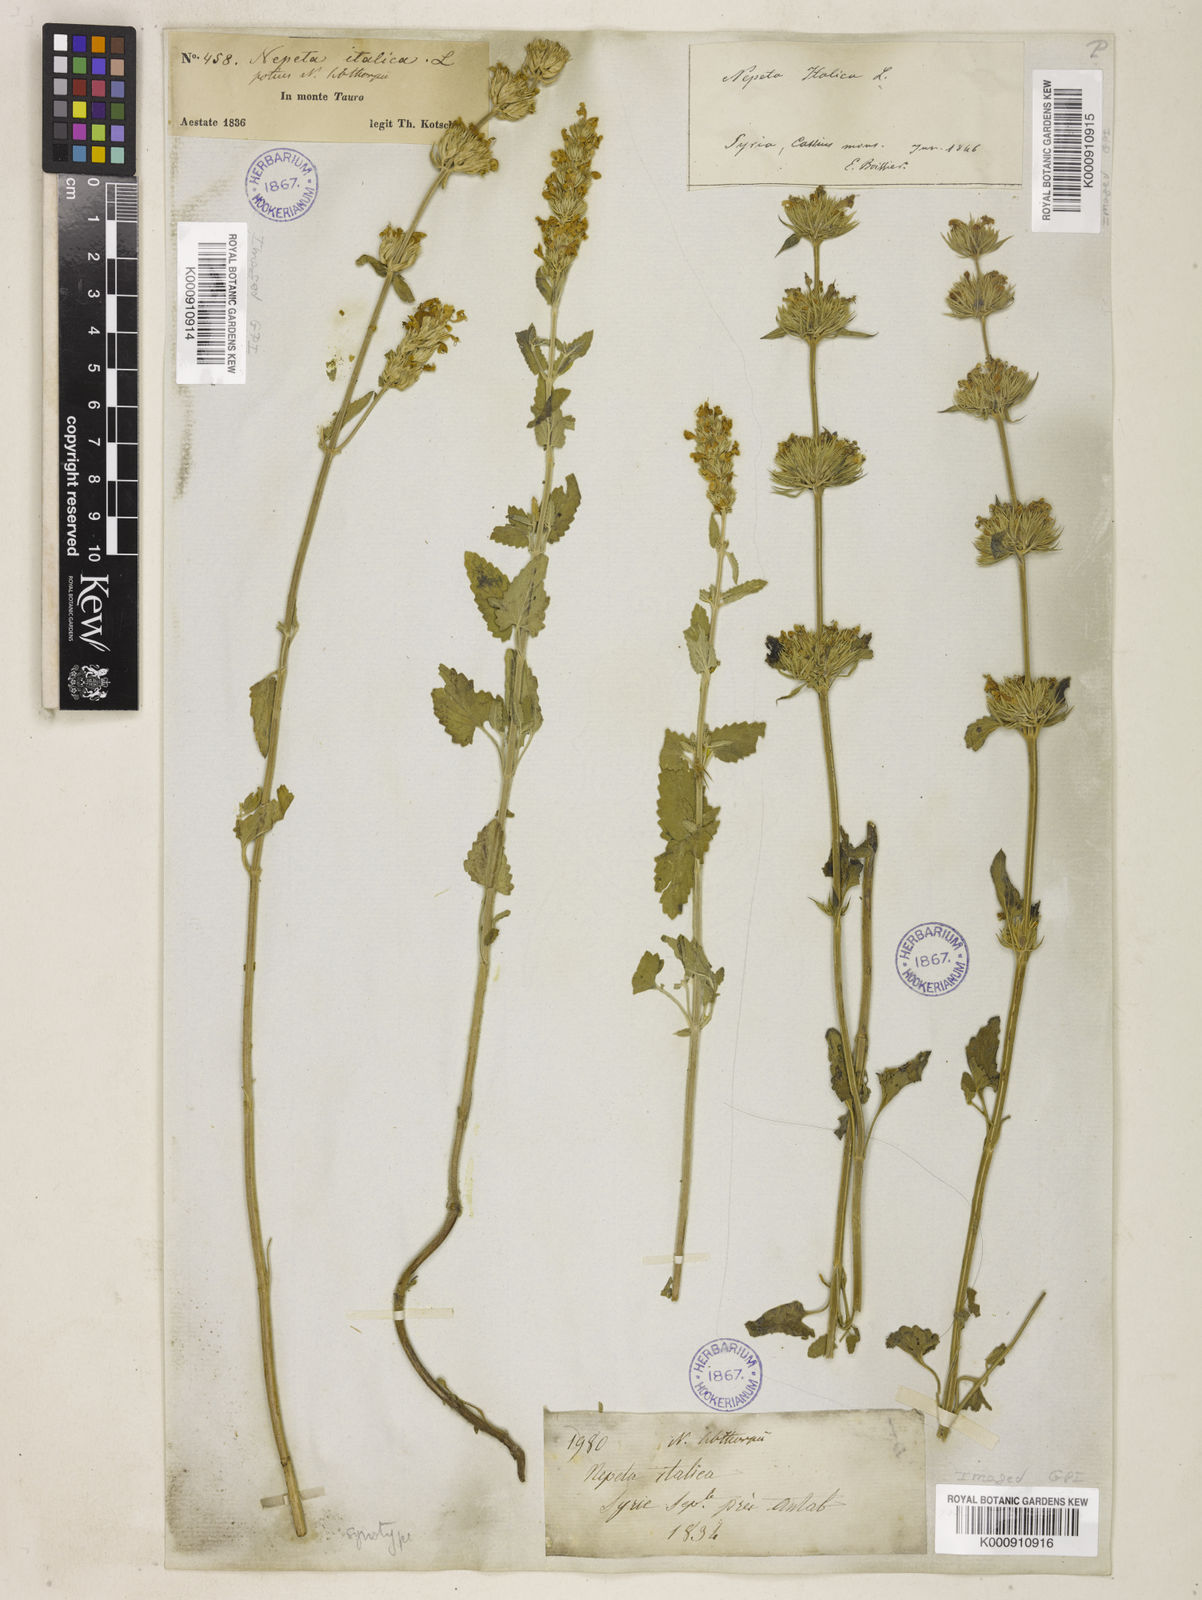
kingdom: Plantae
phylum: Tracheophyta
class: Magnoliopsida
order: Lamiales
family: Lamiaceae
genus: Nepeta
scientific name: Nepeta italica
